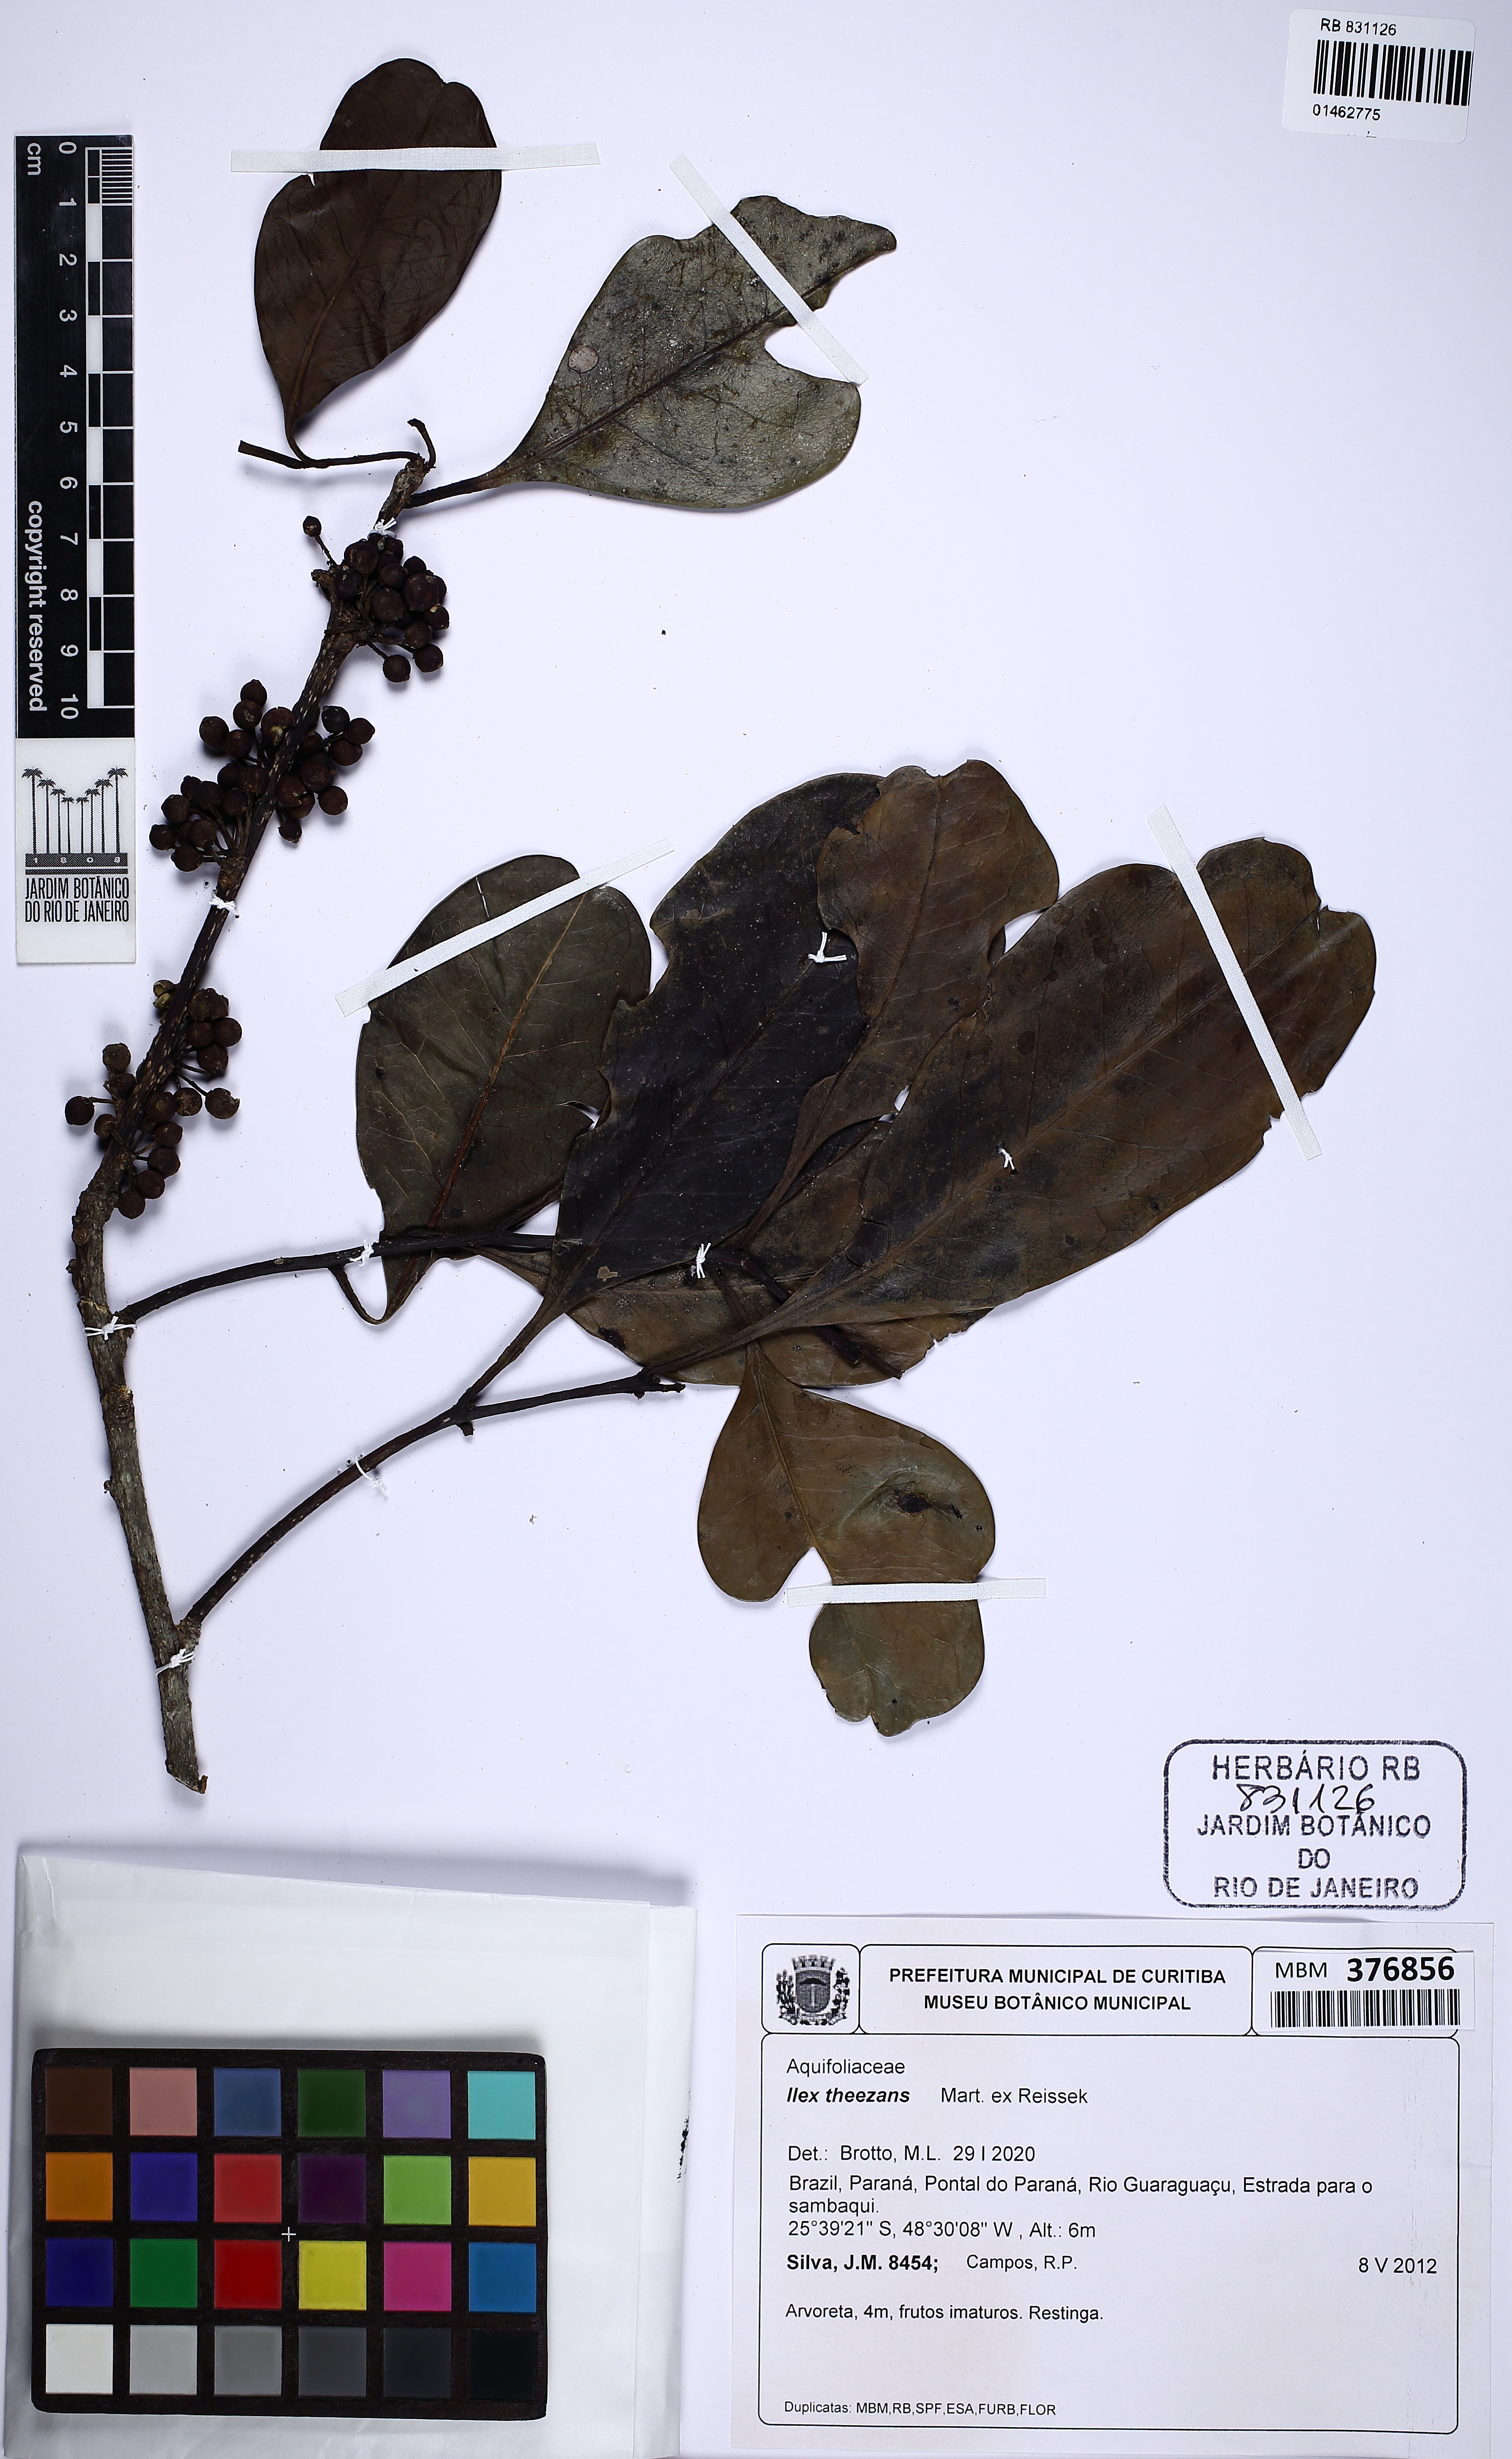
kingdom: Plantae
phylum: Tracheophyta
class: Magnoliopsida
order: Aquifoliales
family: Aquifoliaceae
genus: Ilex
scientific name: Ilex theezans
